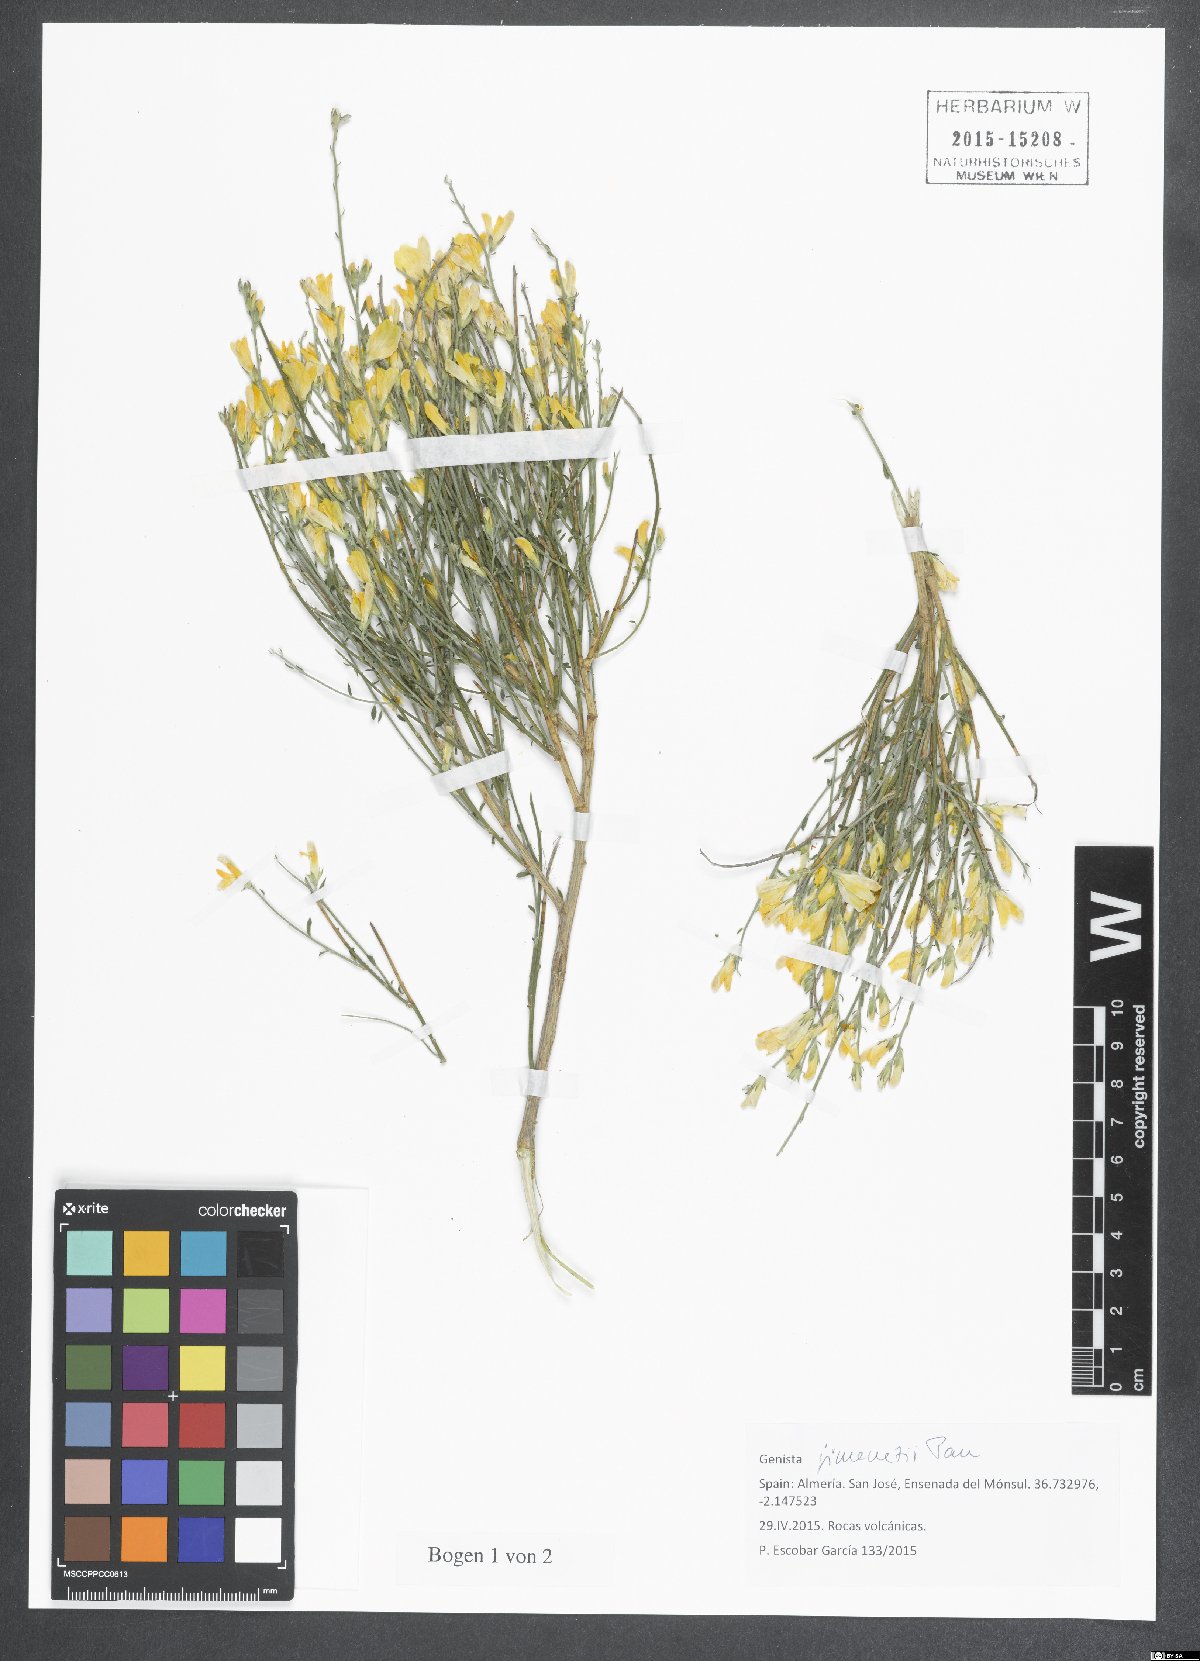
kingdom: Plantae
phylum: Tracheophyta
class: Magnoliopsida
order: Fabales
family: Fabaceae
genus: Genista
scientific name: Genista jimenezii
